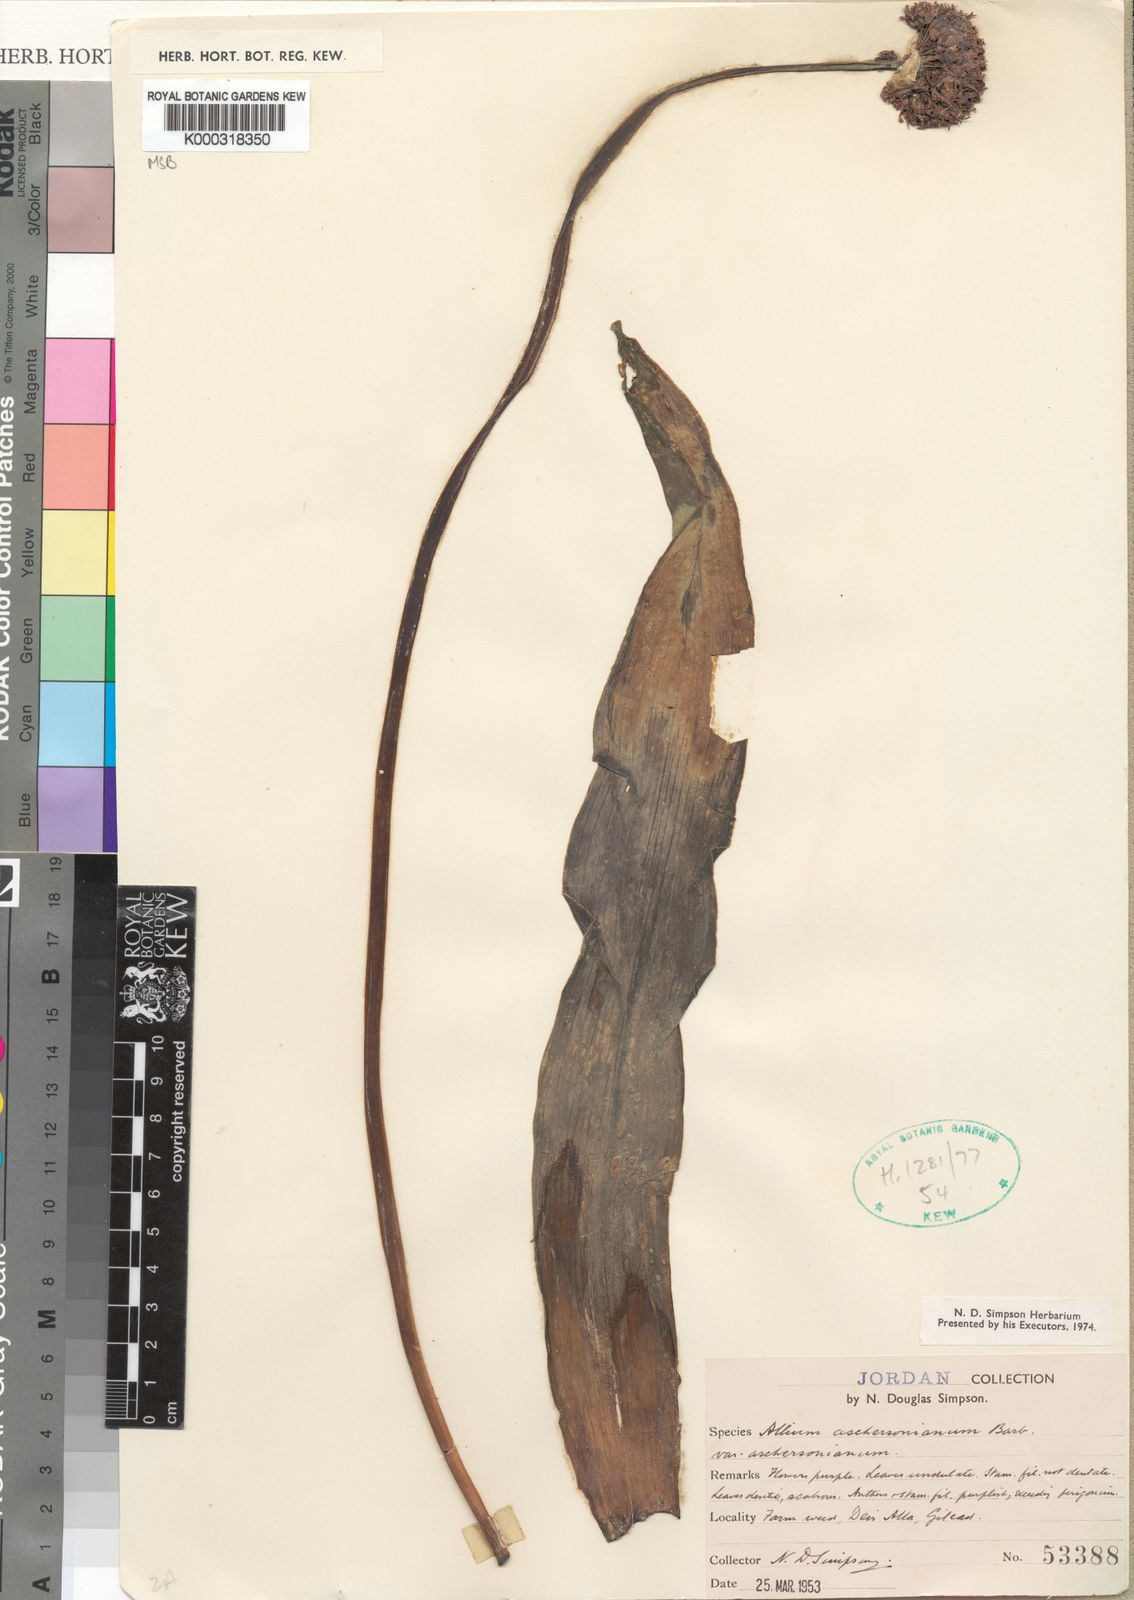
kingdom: Plantae
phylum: Tracheophyta
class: Liliopsida
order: Asparagales
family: Amaryllidaceae
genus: Allium
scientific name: Allium aschersonianum
